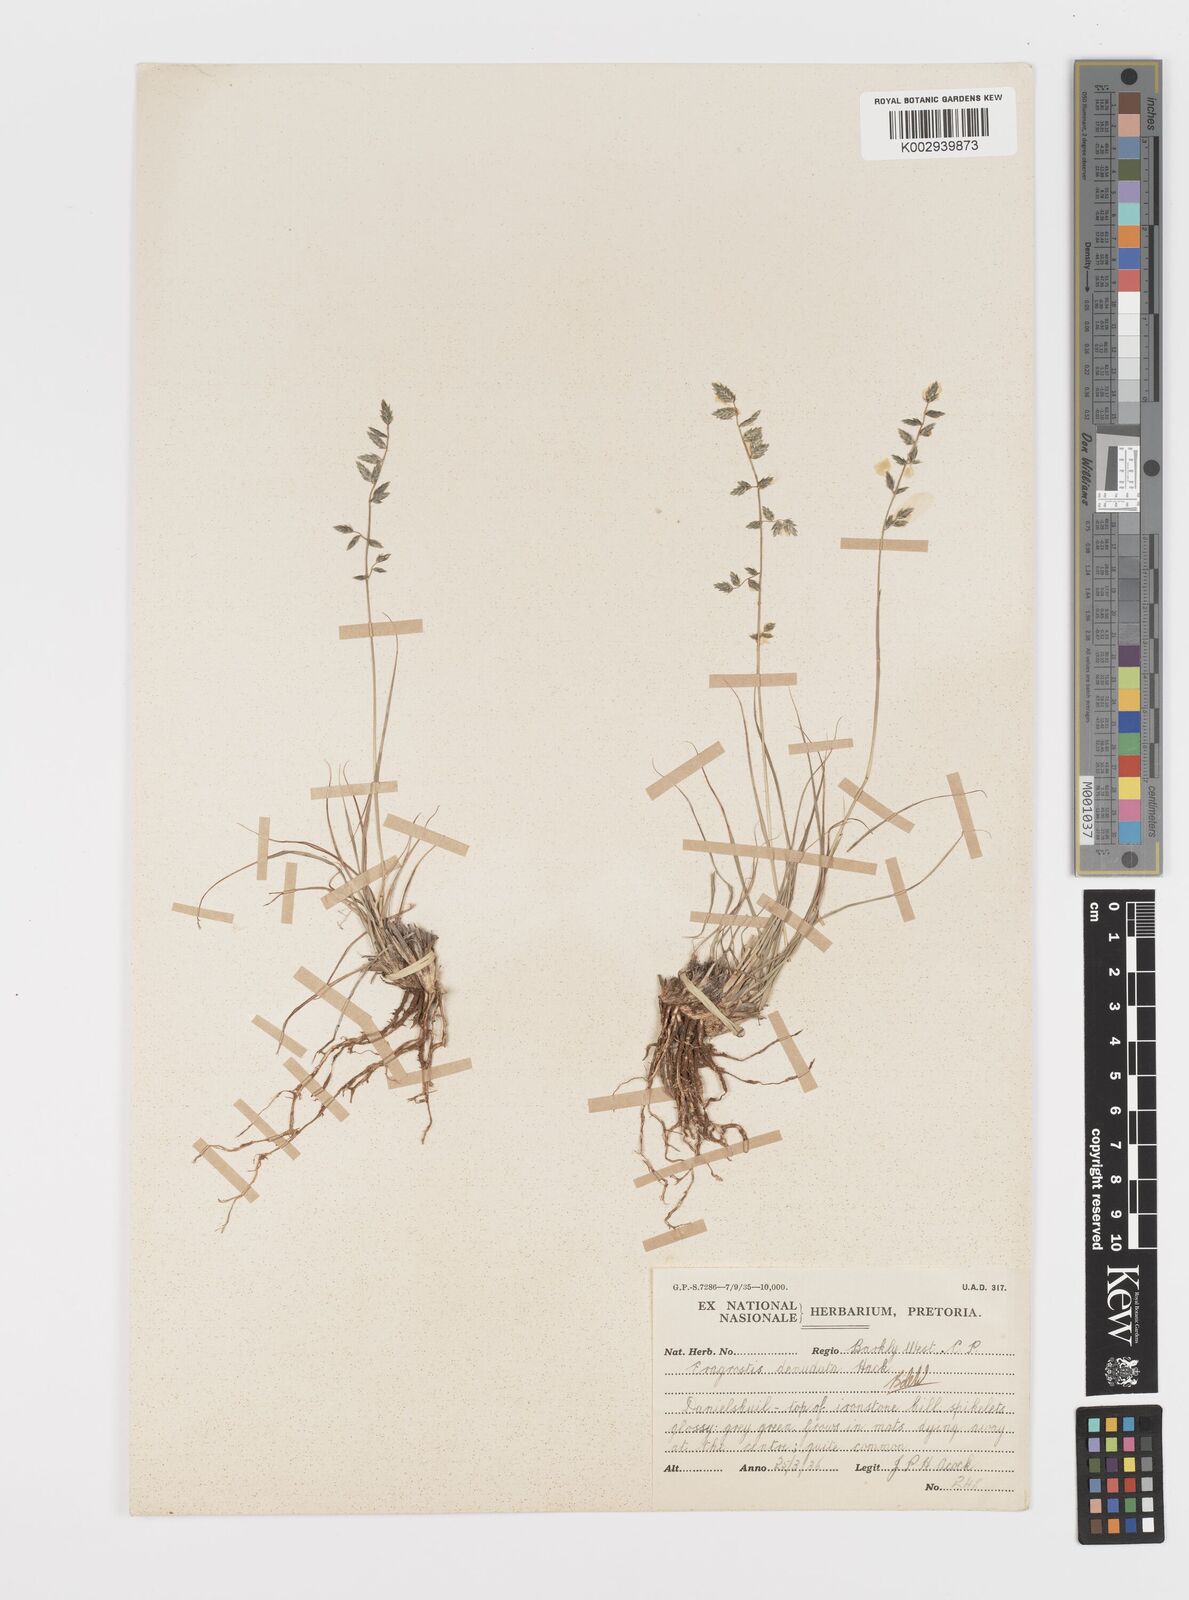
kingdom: Plantae
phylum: Tracheophyta
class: Liliopsida
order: Poales
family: Poaceae
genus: Eragrostis
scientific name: Eragrostis nindensis
